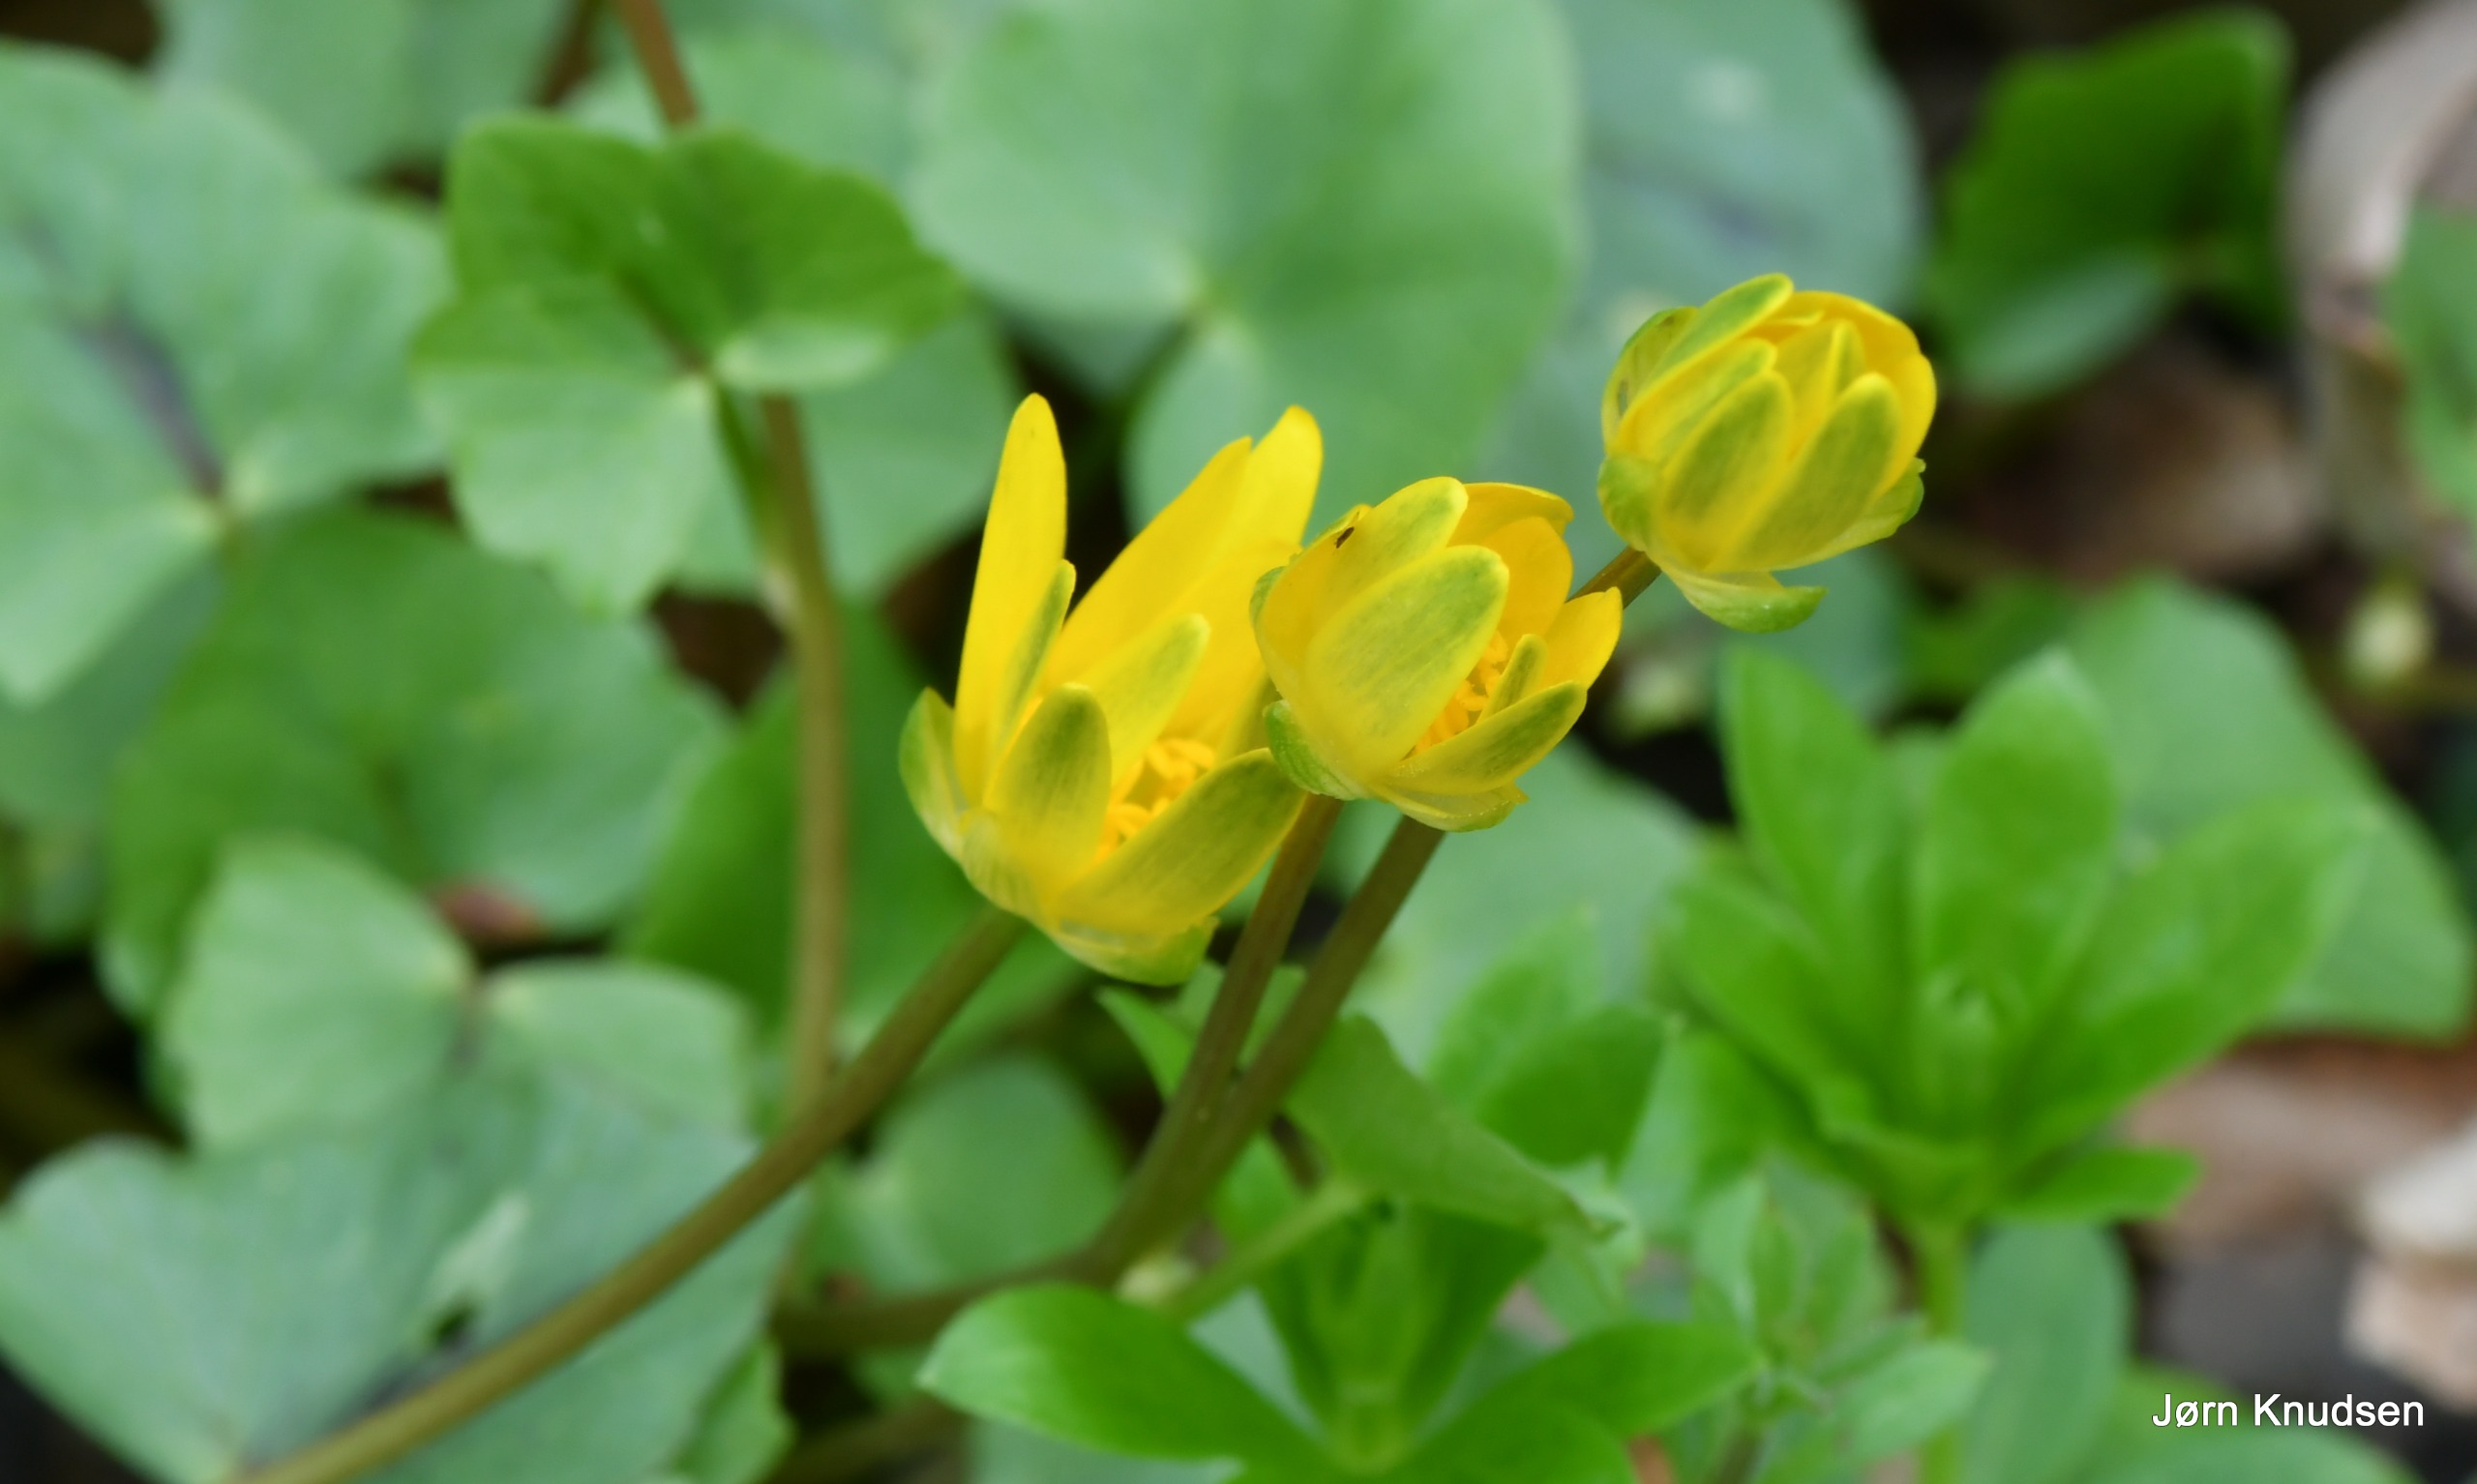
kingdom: Plantae
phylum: Tracheophyta
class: Magnoliopsida
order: Ranunculales
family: Ranunculaceae
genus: Ficaria
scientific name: Ficaria verna
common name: Vorterod
